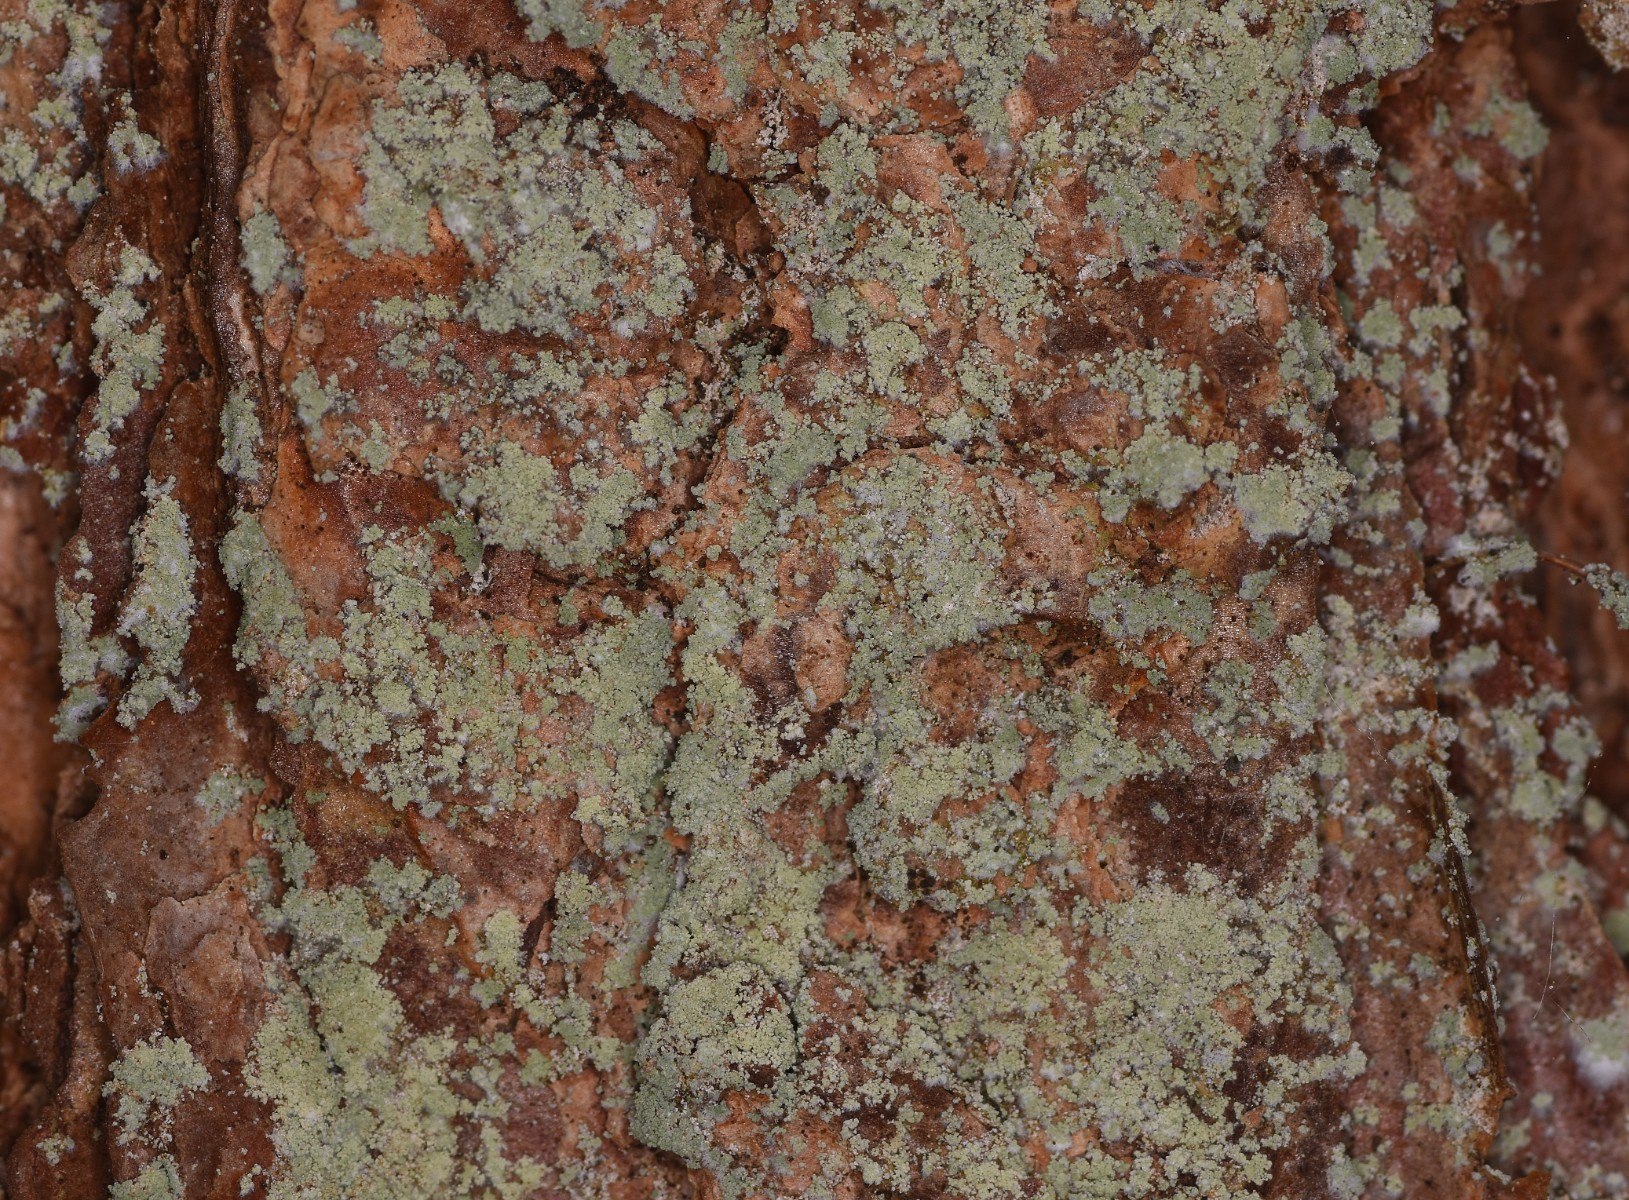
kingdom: Fungi
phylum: Ascomycota
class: Lecanoromycetes
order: Lecanorales
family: Stereocaulaceae
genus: Lepraria
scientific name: Lepraria incana
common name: almindelig støvlav
